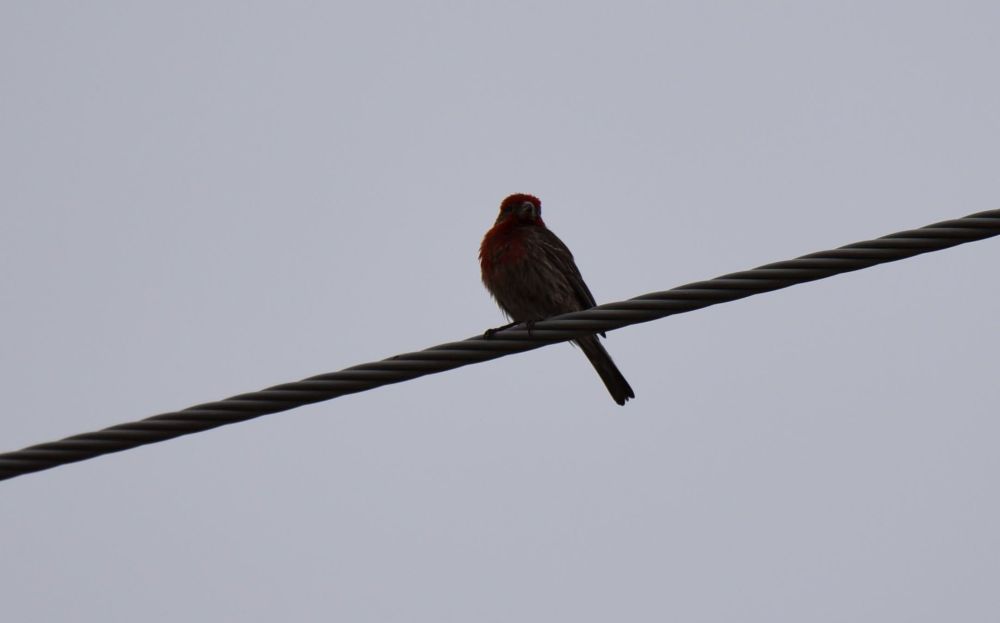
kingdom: Animalia
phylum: Chordata
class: Aves
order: Passeriformes
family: Fringillidae
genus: Haemorhous
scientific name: Haemorhous mexicanus
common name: House finch
